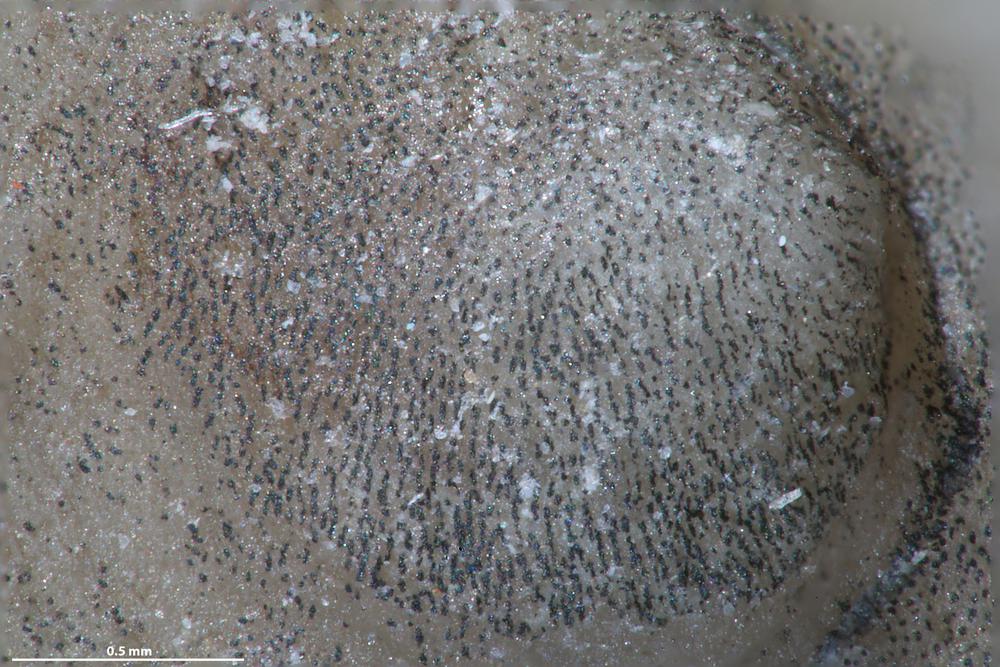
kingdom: Animalia
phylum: Brachiopoda
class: Craniata
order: Craniida
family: Craniidae
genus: Petrocrania
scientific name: Petrocrania
